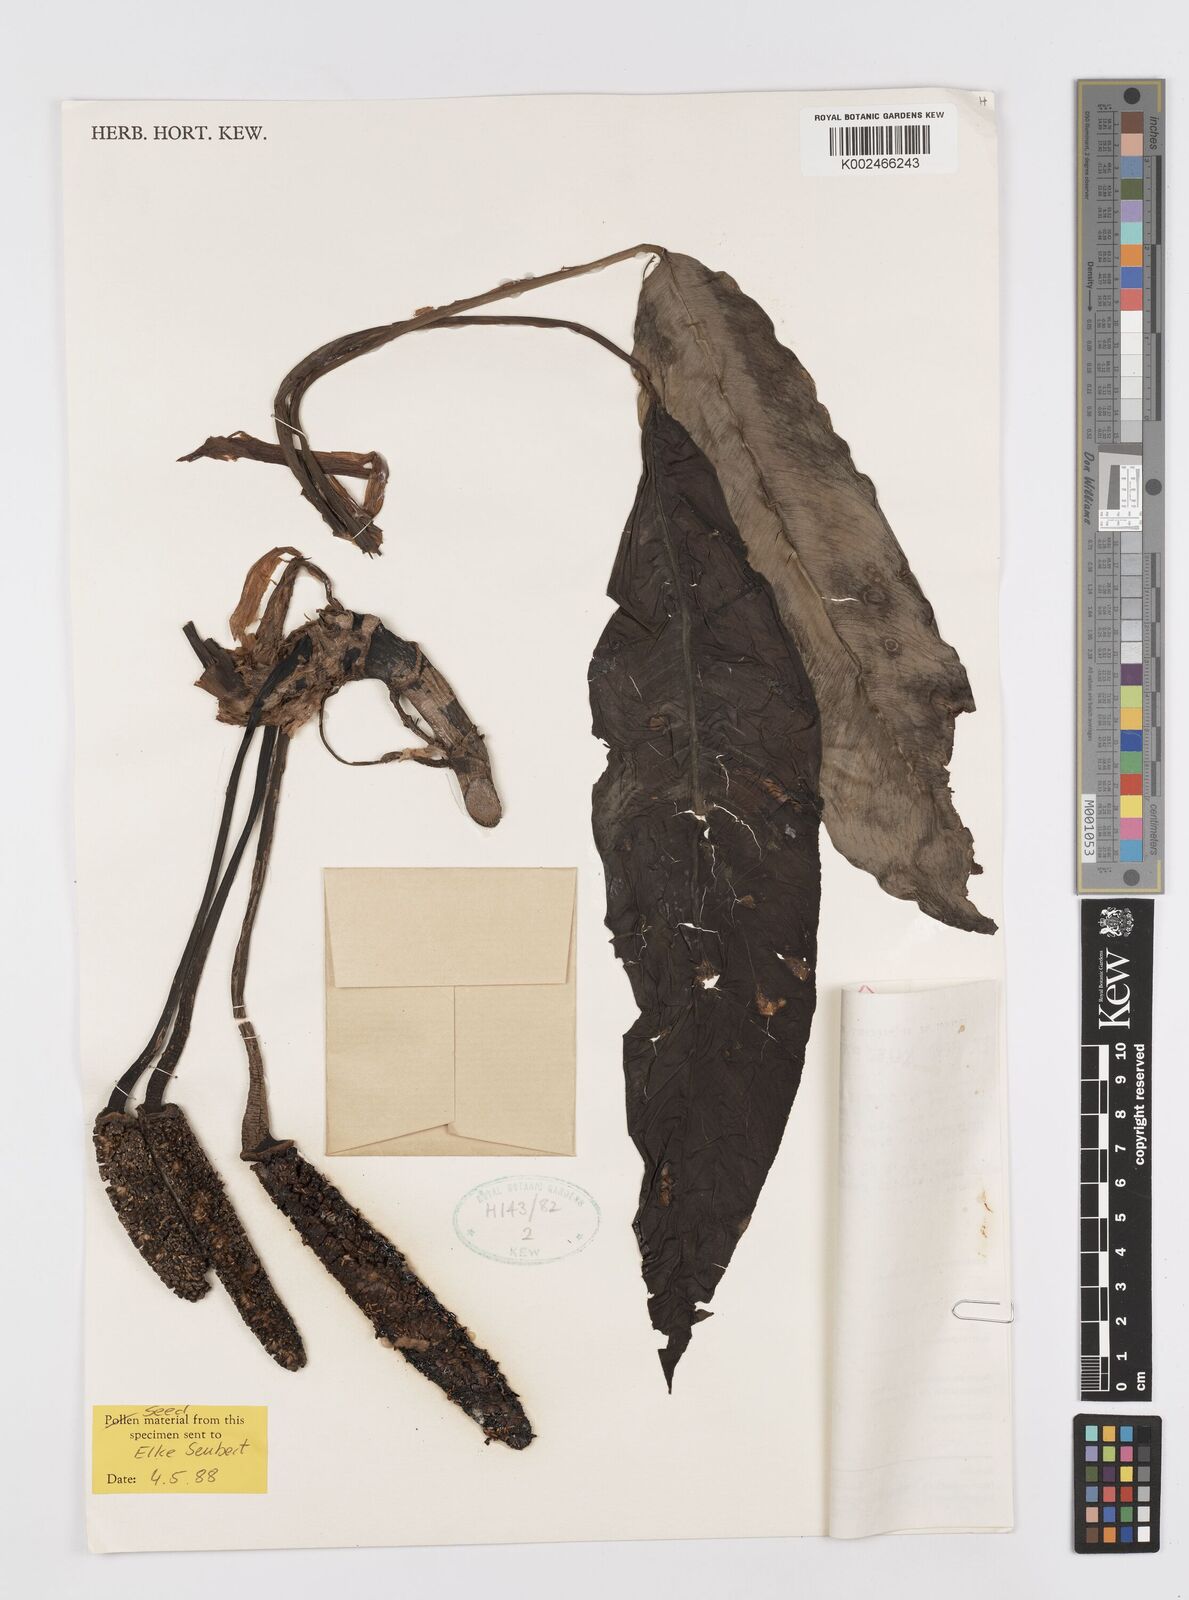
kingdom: Plantae
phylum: Tracheophyta
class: Liliopsida
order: Alismatales
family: Araceae
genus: Rhaphidophora
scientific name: Rhaphidophora africana
